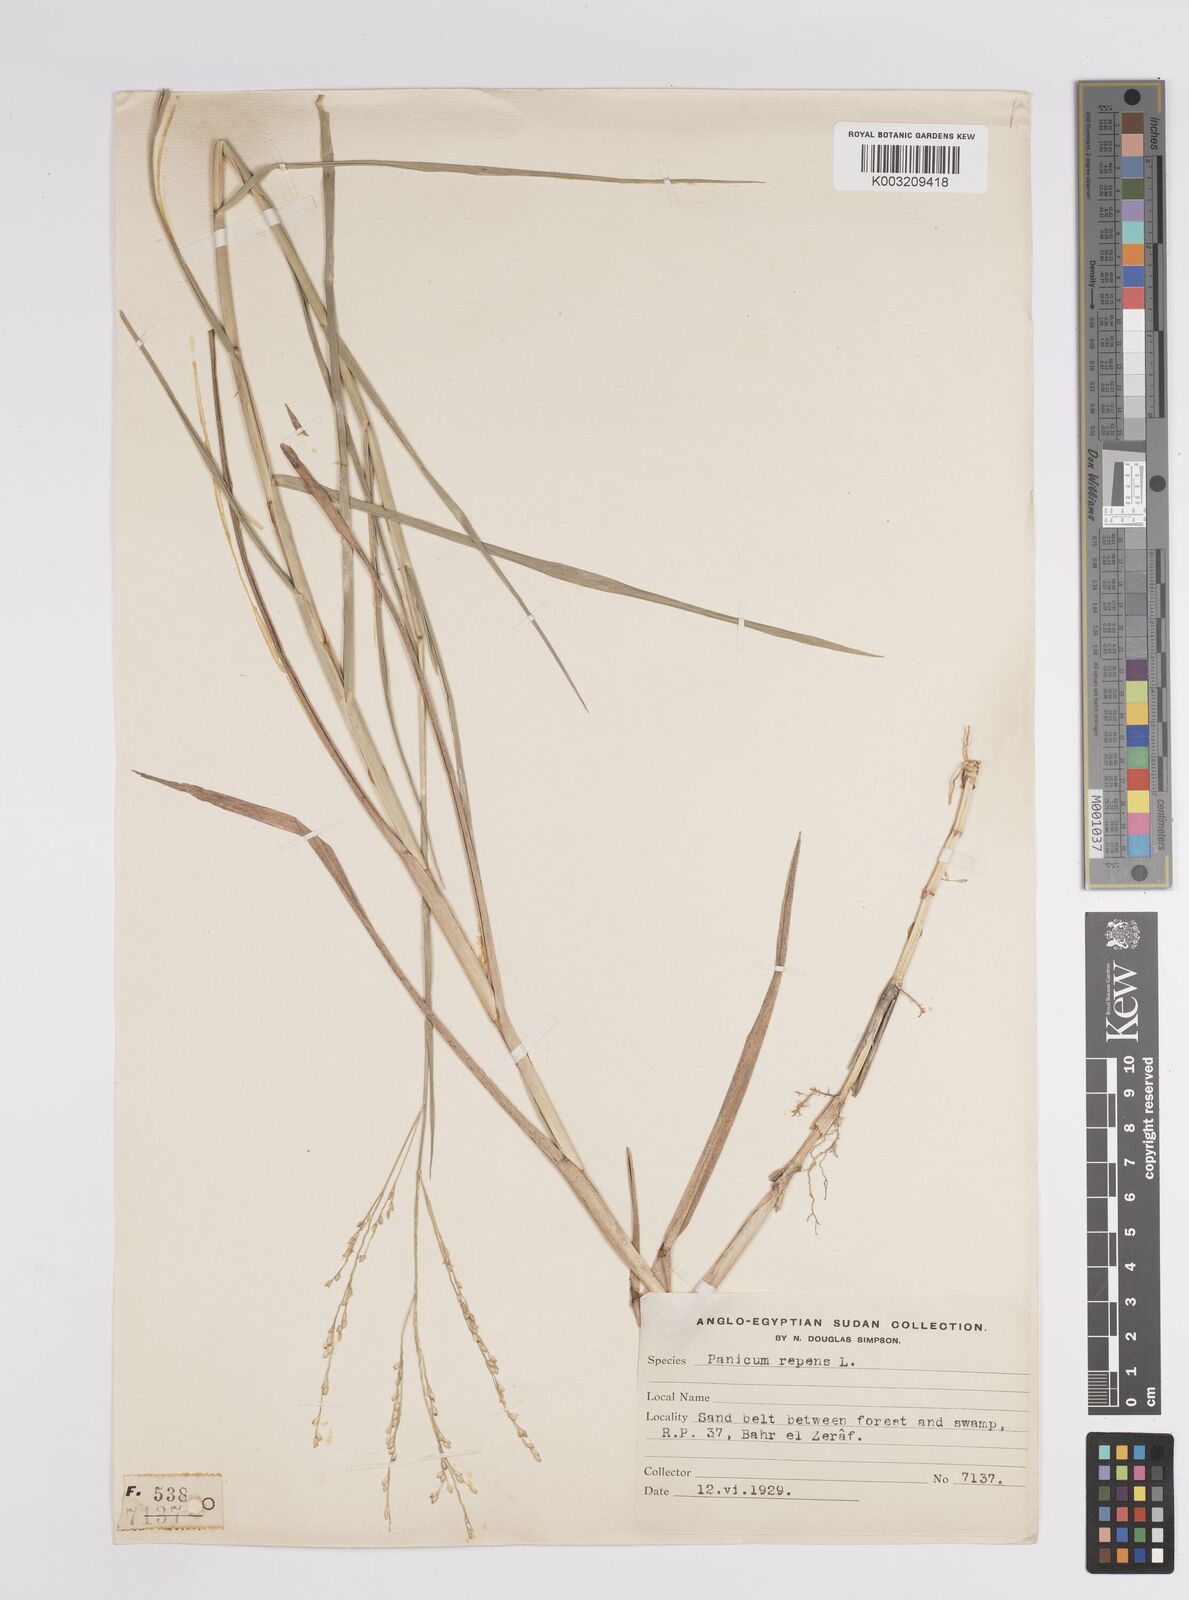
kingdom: Plantae
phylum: Tracheophyta
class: Liliopsida
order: Poales
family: Poaceae
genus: Panicum
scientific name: Panicum repens
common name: Torpedo grass
